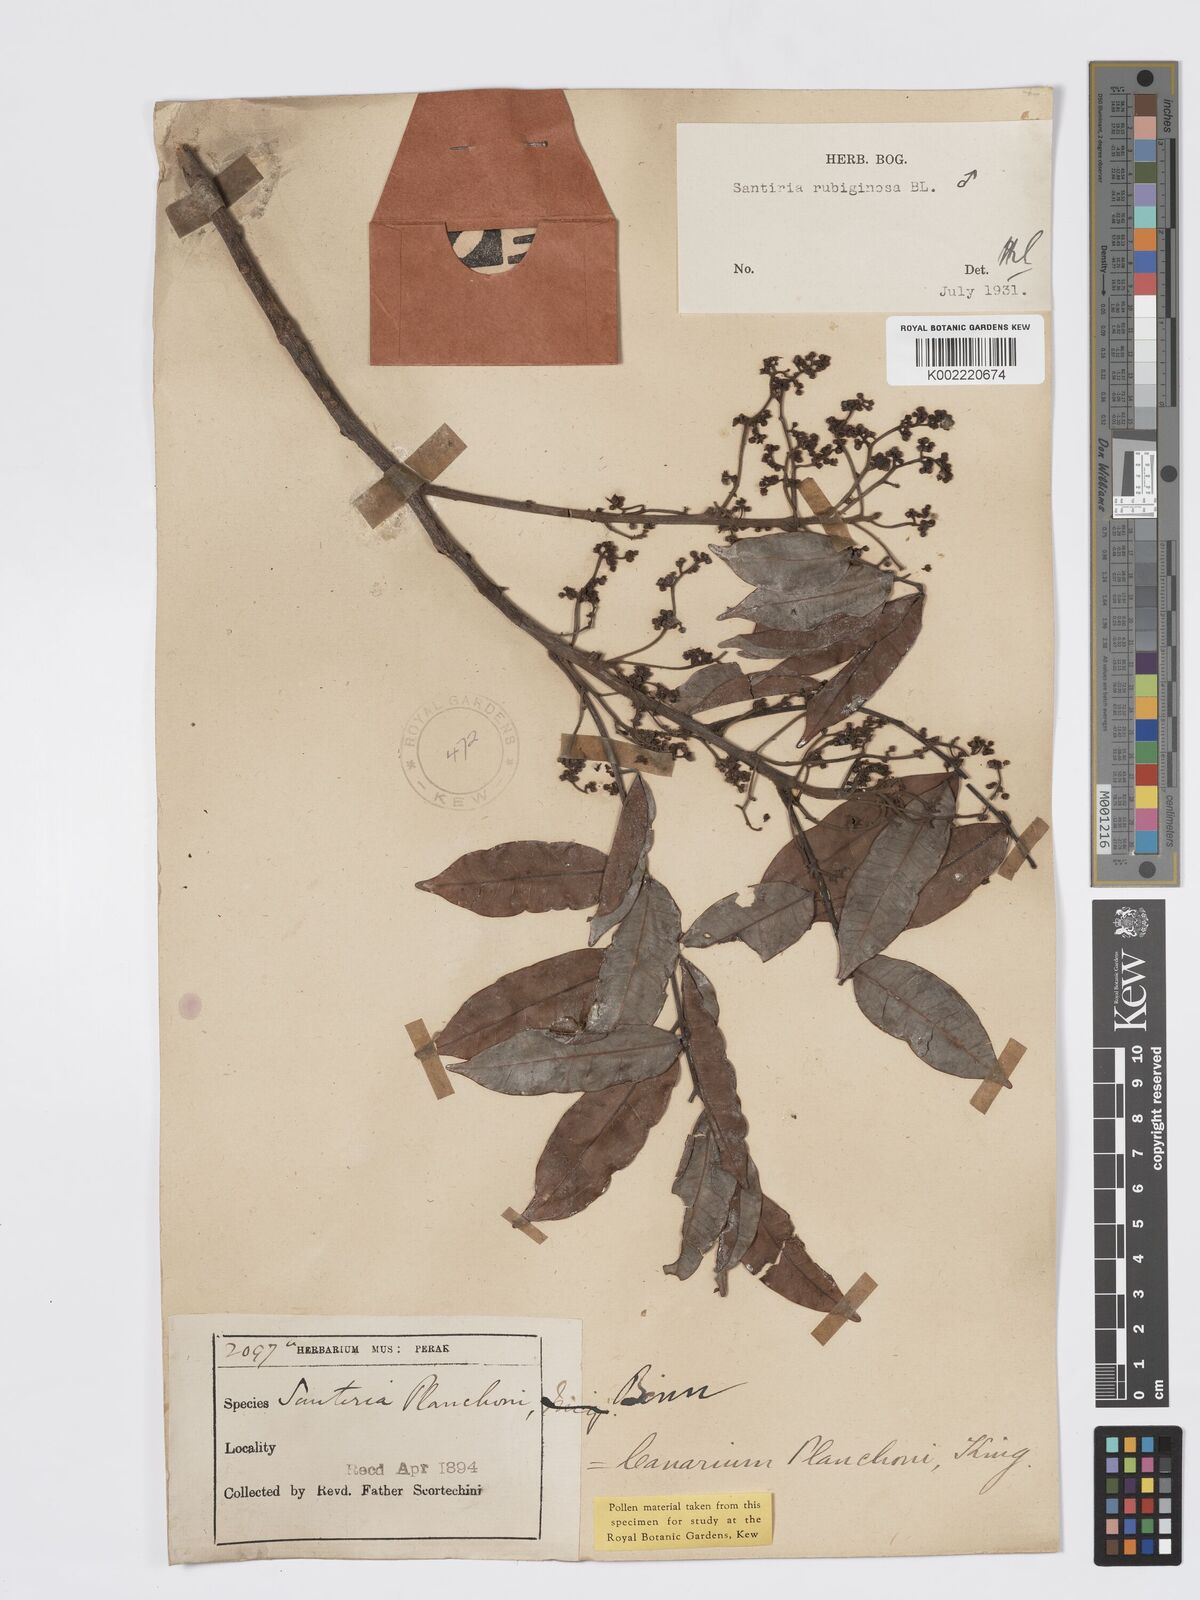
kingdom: Plantae
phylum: Tracheophyta
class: Magnoliopsida
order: Sapindales
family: Burseraceae
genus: Santiria
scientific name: Santiria rubiginosa
